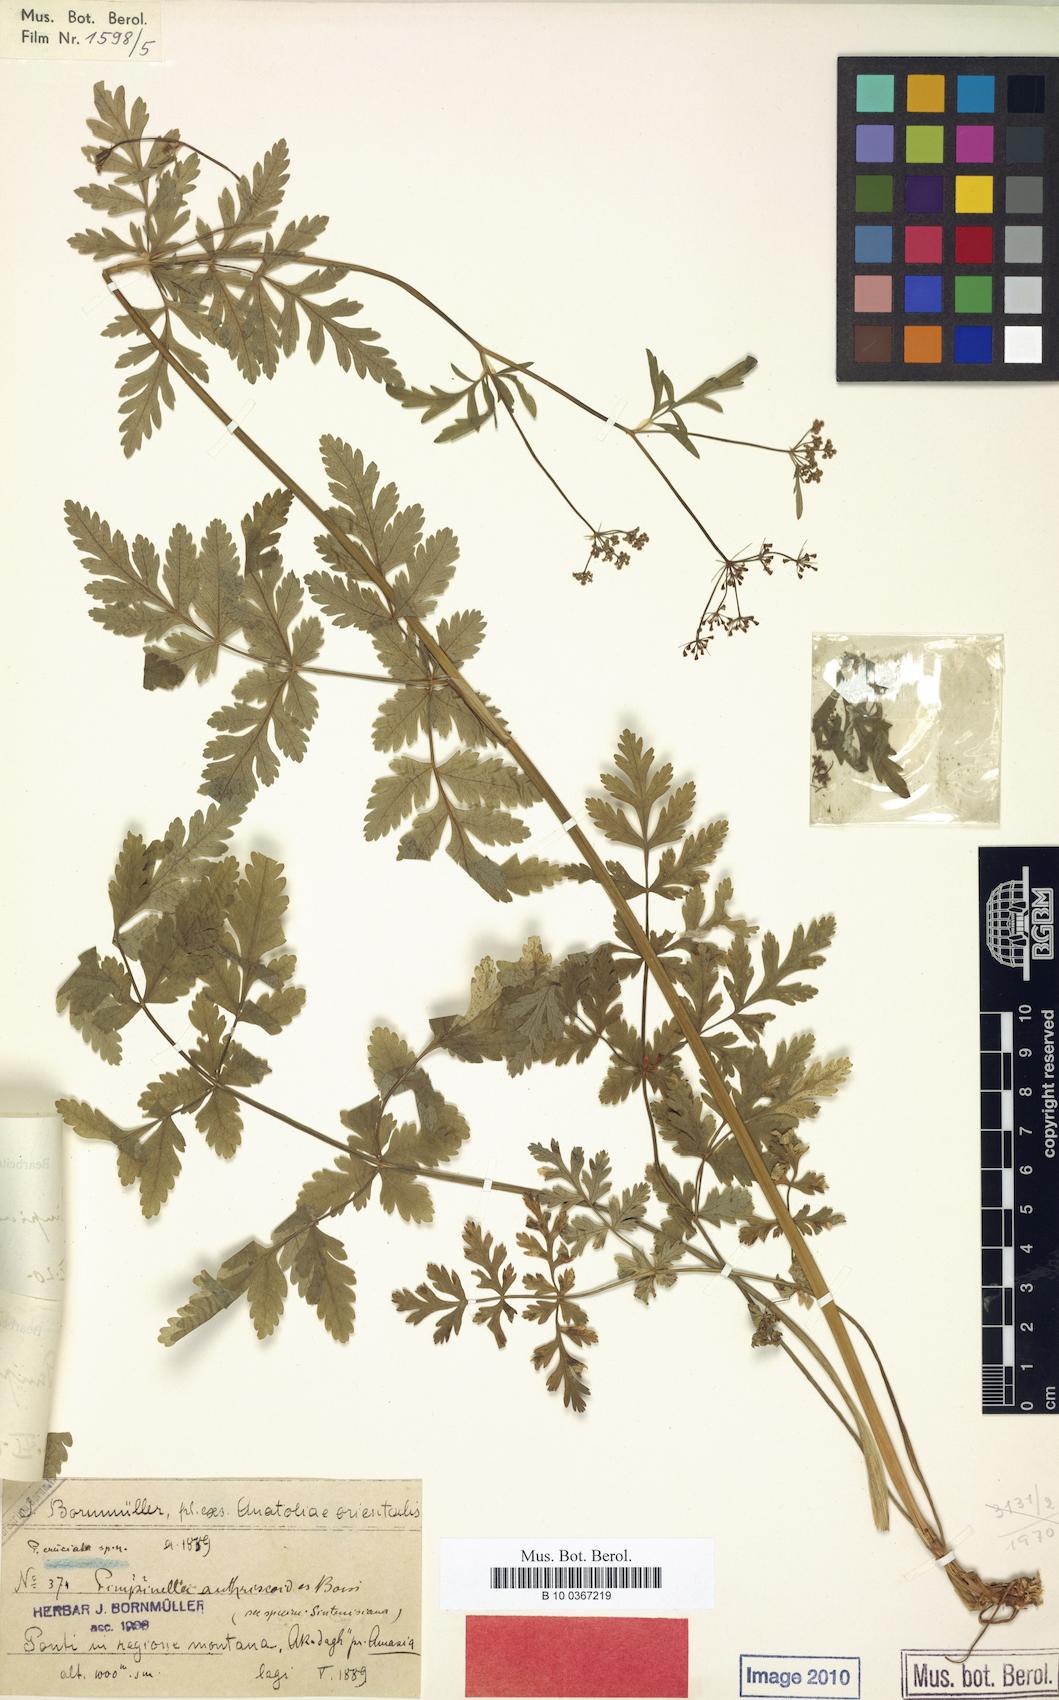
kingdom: Plantae
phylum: Tracheophyta
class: Magnoliopsida
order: Apiales
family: Apiaceae
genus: Tamamschjanella
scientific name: Tamamschjanella cruciata
